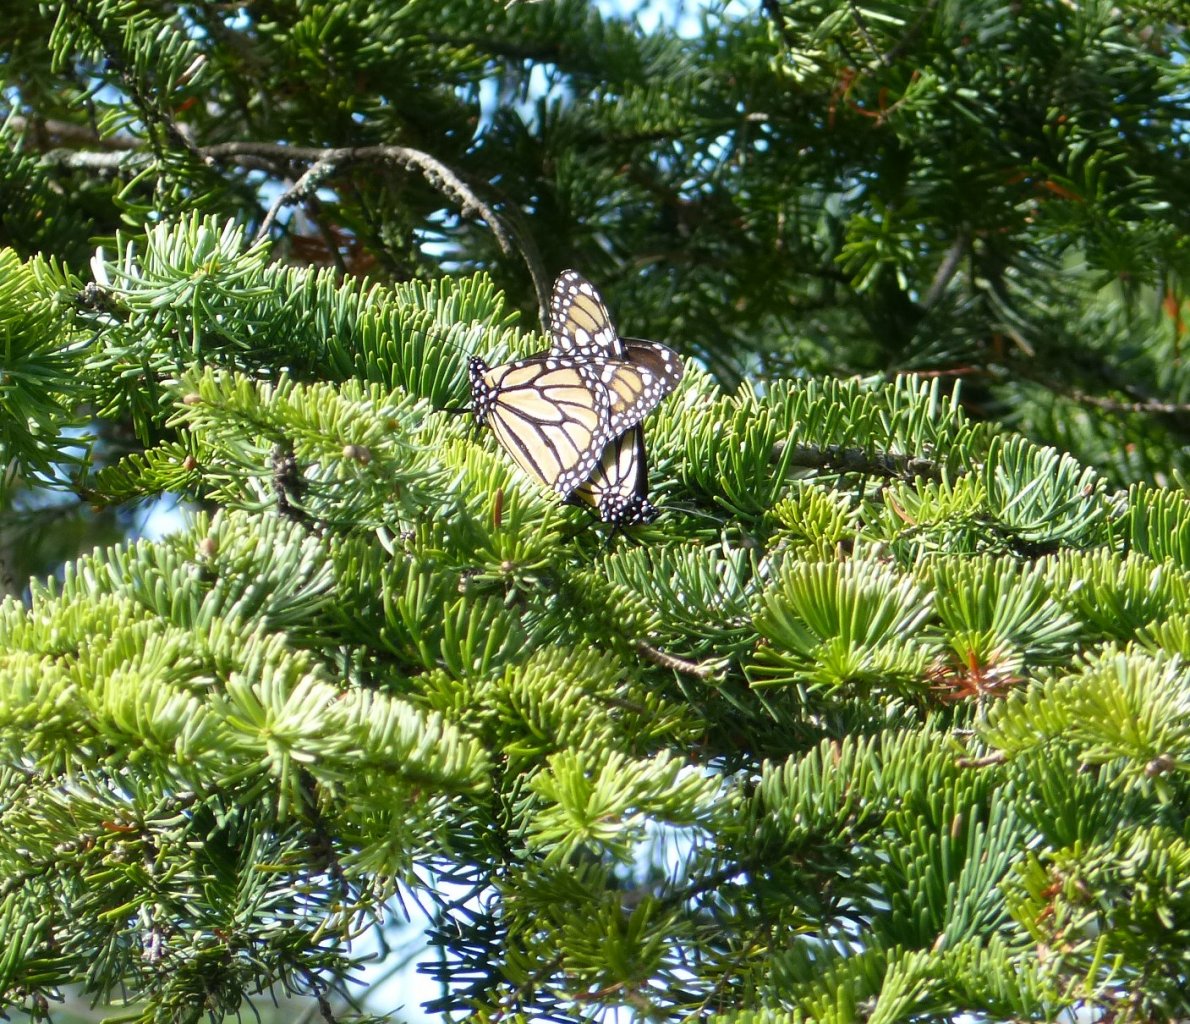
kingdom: Animalia
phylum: Arthropoda
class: Insecta
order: Lepidoptera
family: Nymphalidae
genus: Danaus
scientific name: Danaus plexippus
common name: Monarch
